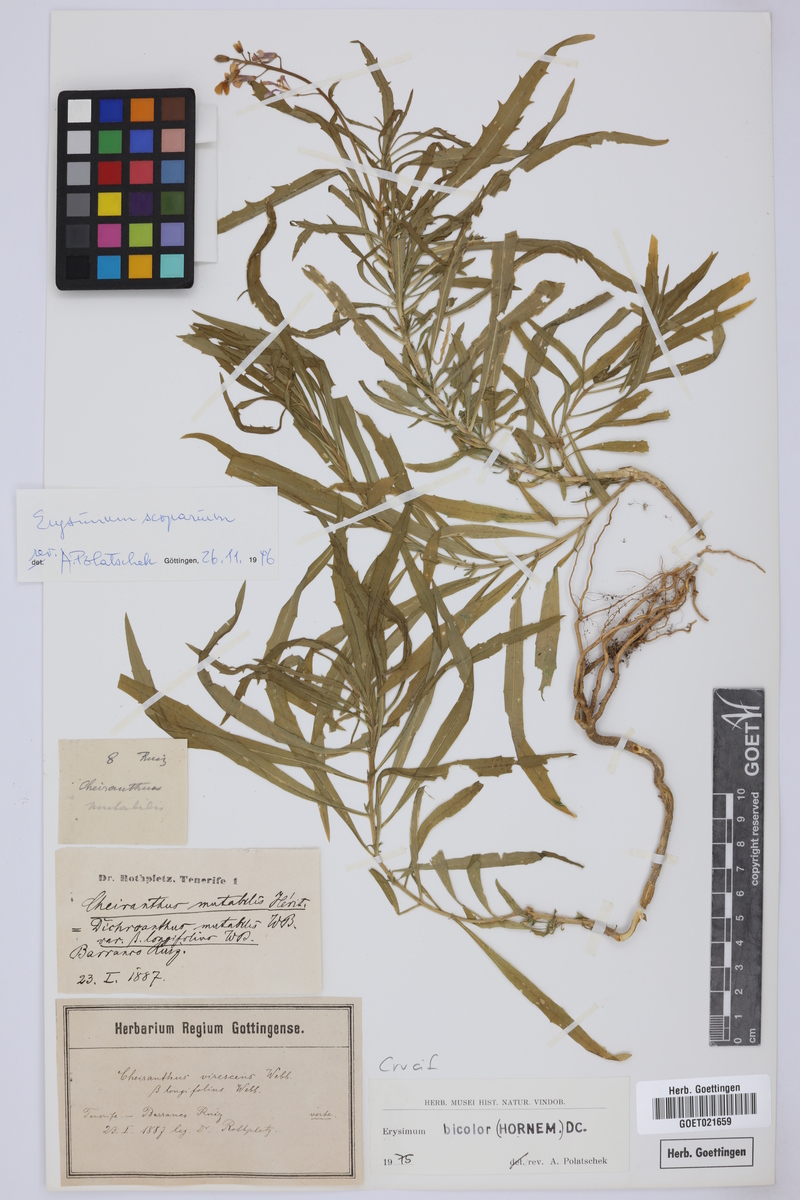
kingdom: Plantae
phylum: Tracheophyta
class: Magnoliopsida
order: Brassicales
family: Brassicaceae
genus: Erysimum
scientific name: Erysimum scoparium
